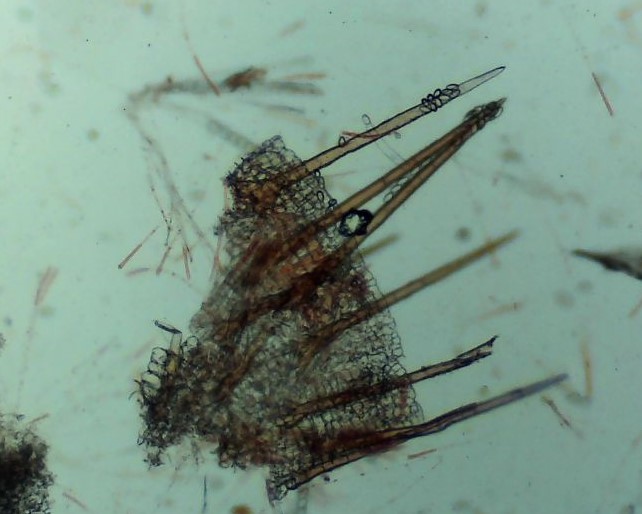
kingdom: Fungi
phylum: Ascomycota
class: Pezizomycetes
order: Pezizales
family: Pyronemataceae
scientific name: Pyronemataceae
